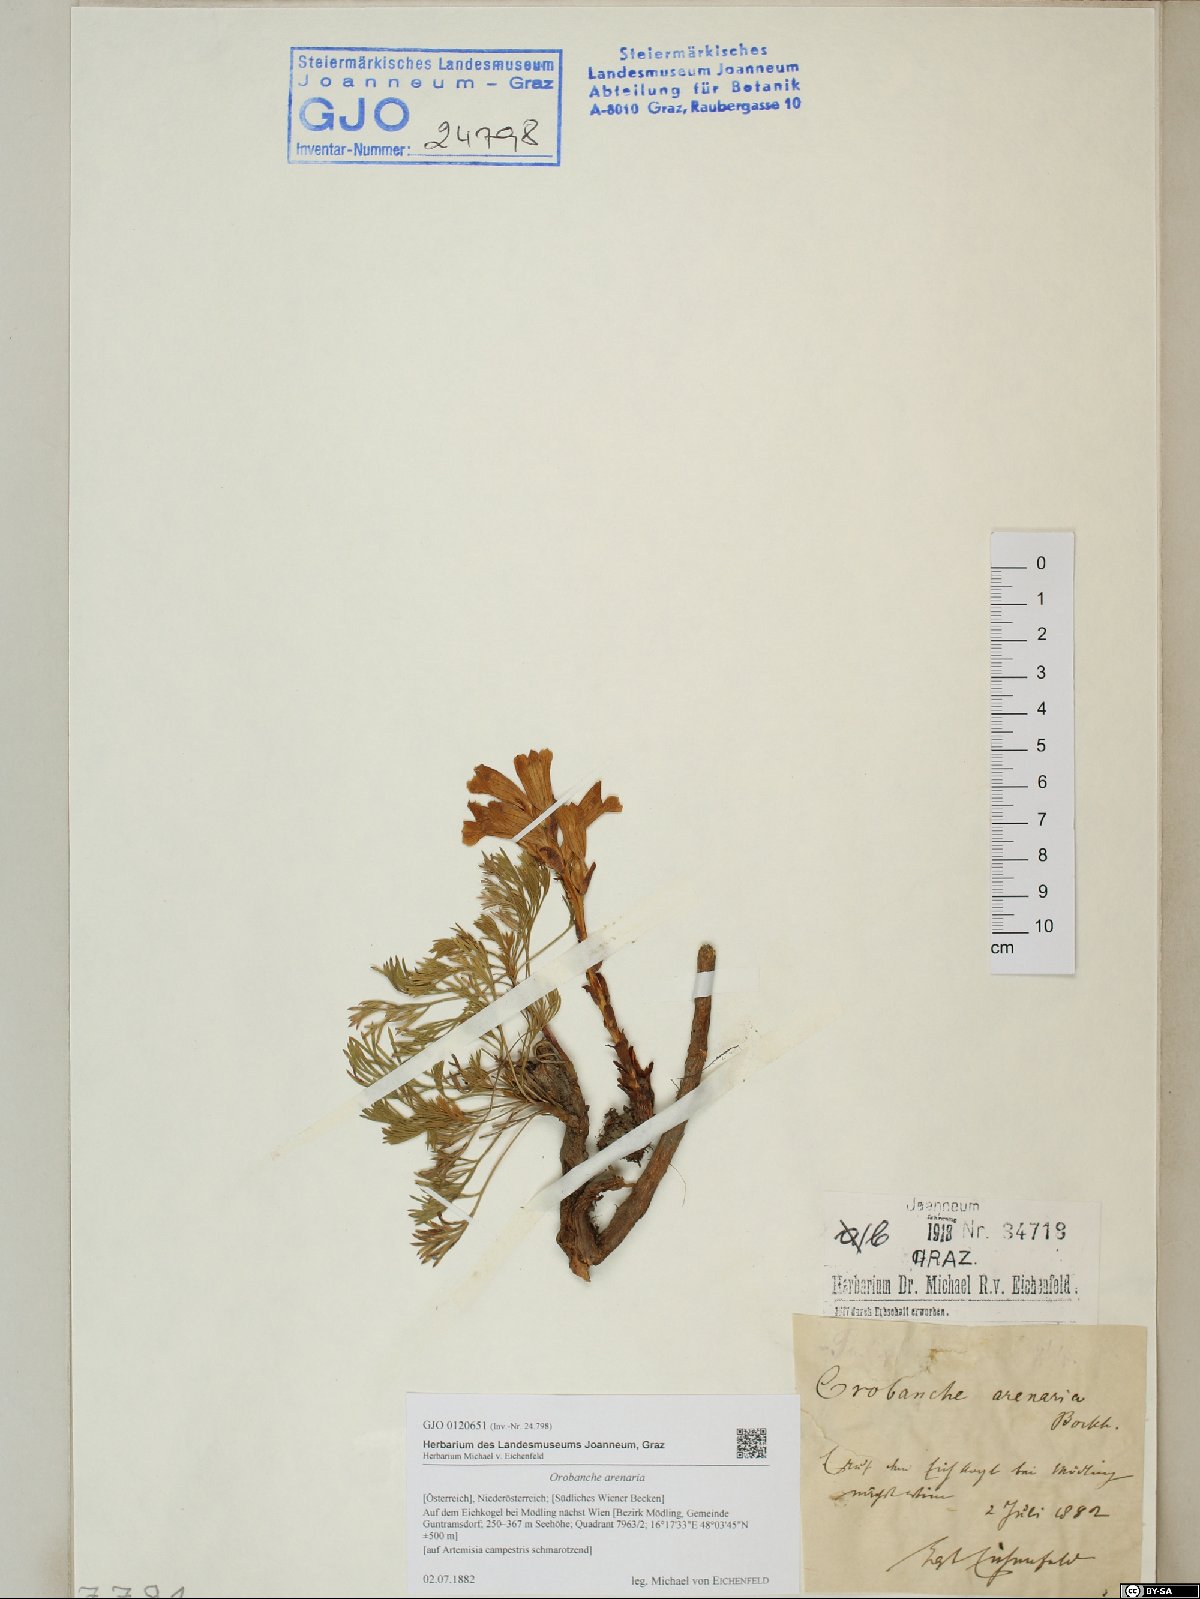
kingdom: Plantae
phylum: Tracheophyta
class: Magnoliopsida
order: Lamiales
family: Orobanchaceae
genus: Phelipanche
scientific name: Phelipanche arenaria
